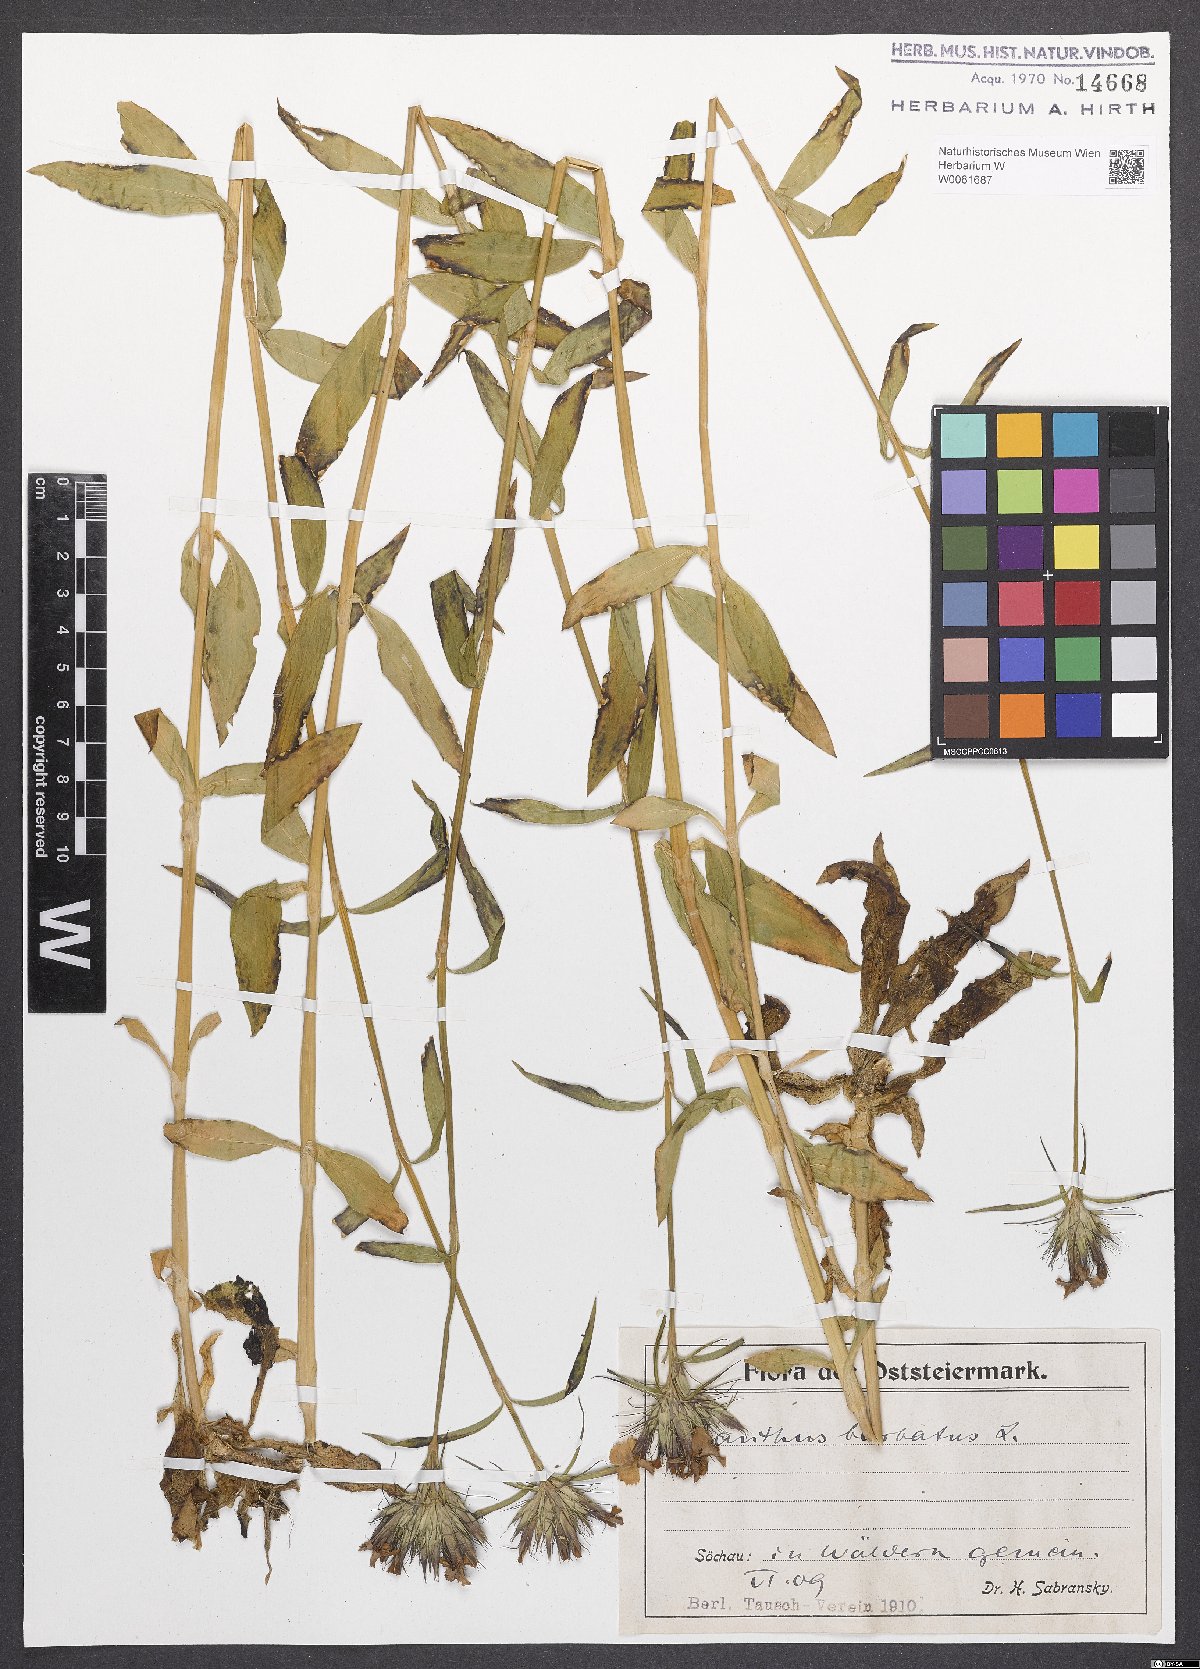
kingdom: Plantae
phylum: Tracheophyta
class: Magnoliopsida
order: Caryophyllales
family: Caryophyllaceae
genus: Dianthus
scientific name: Dianthus armeria
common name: Deptford pink
